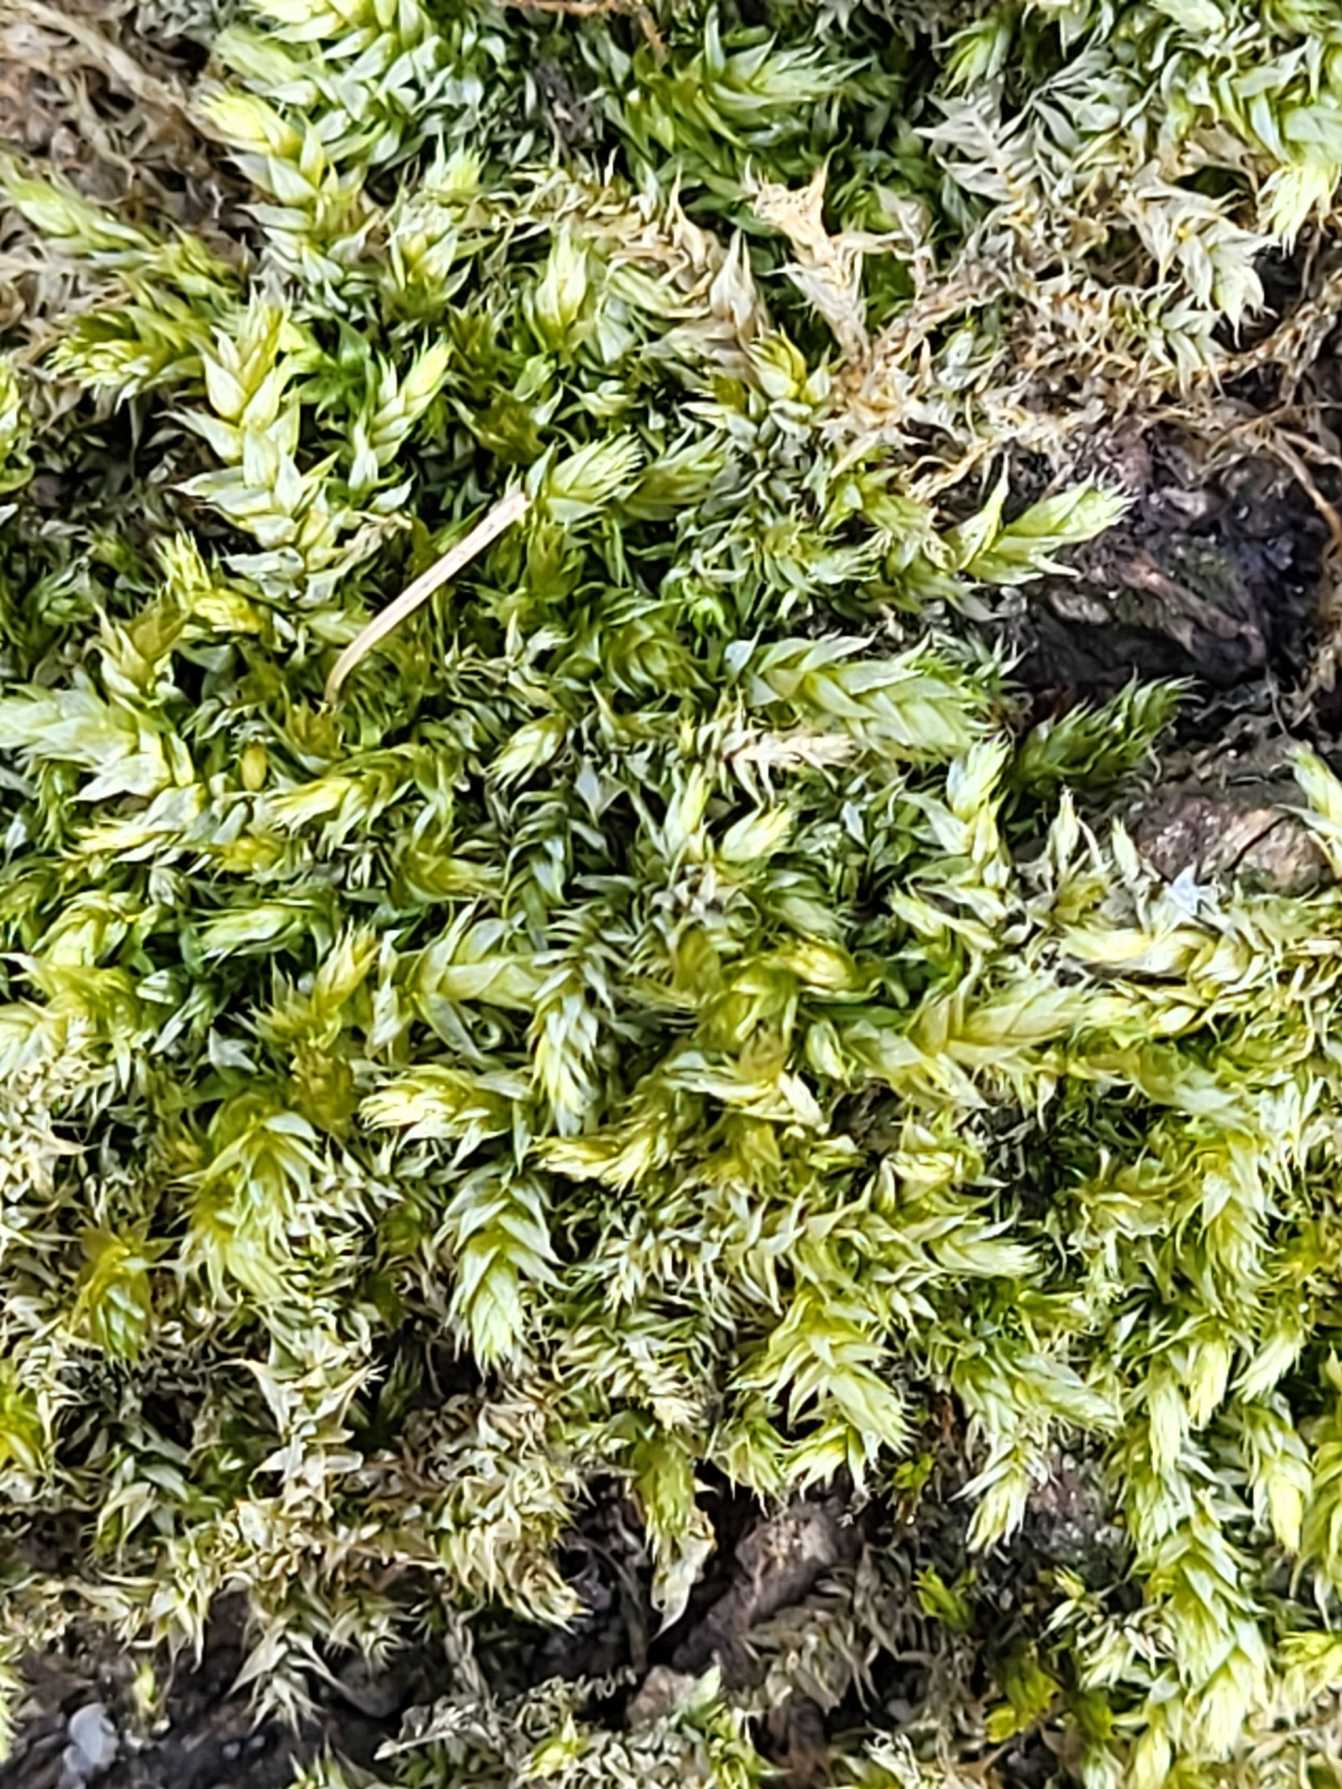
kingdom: Plantae
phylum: Bryophyta
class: Bryopsida
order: Hypnales
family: Brachytheciaceae
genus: Brachythecium
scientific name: Brachythecium rutabulum
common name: Almindelig kortkapsel
